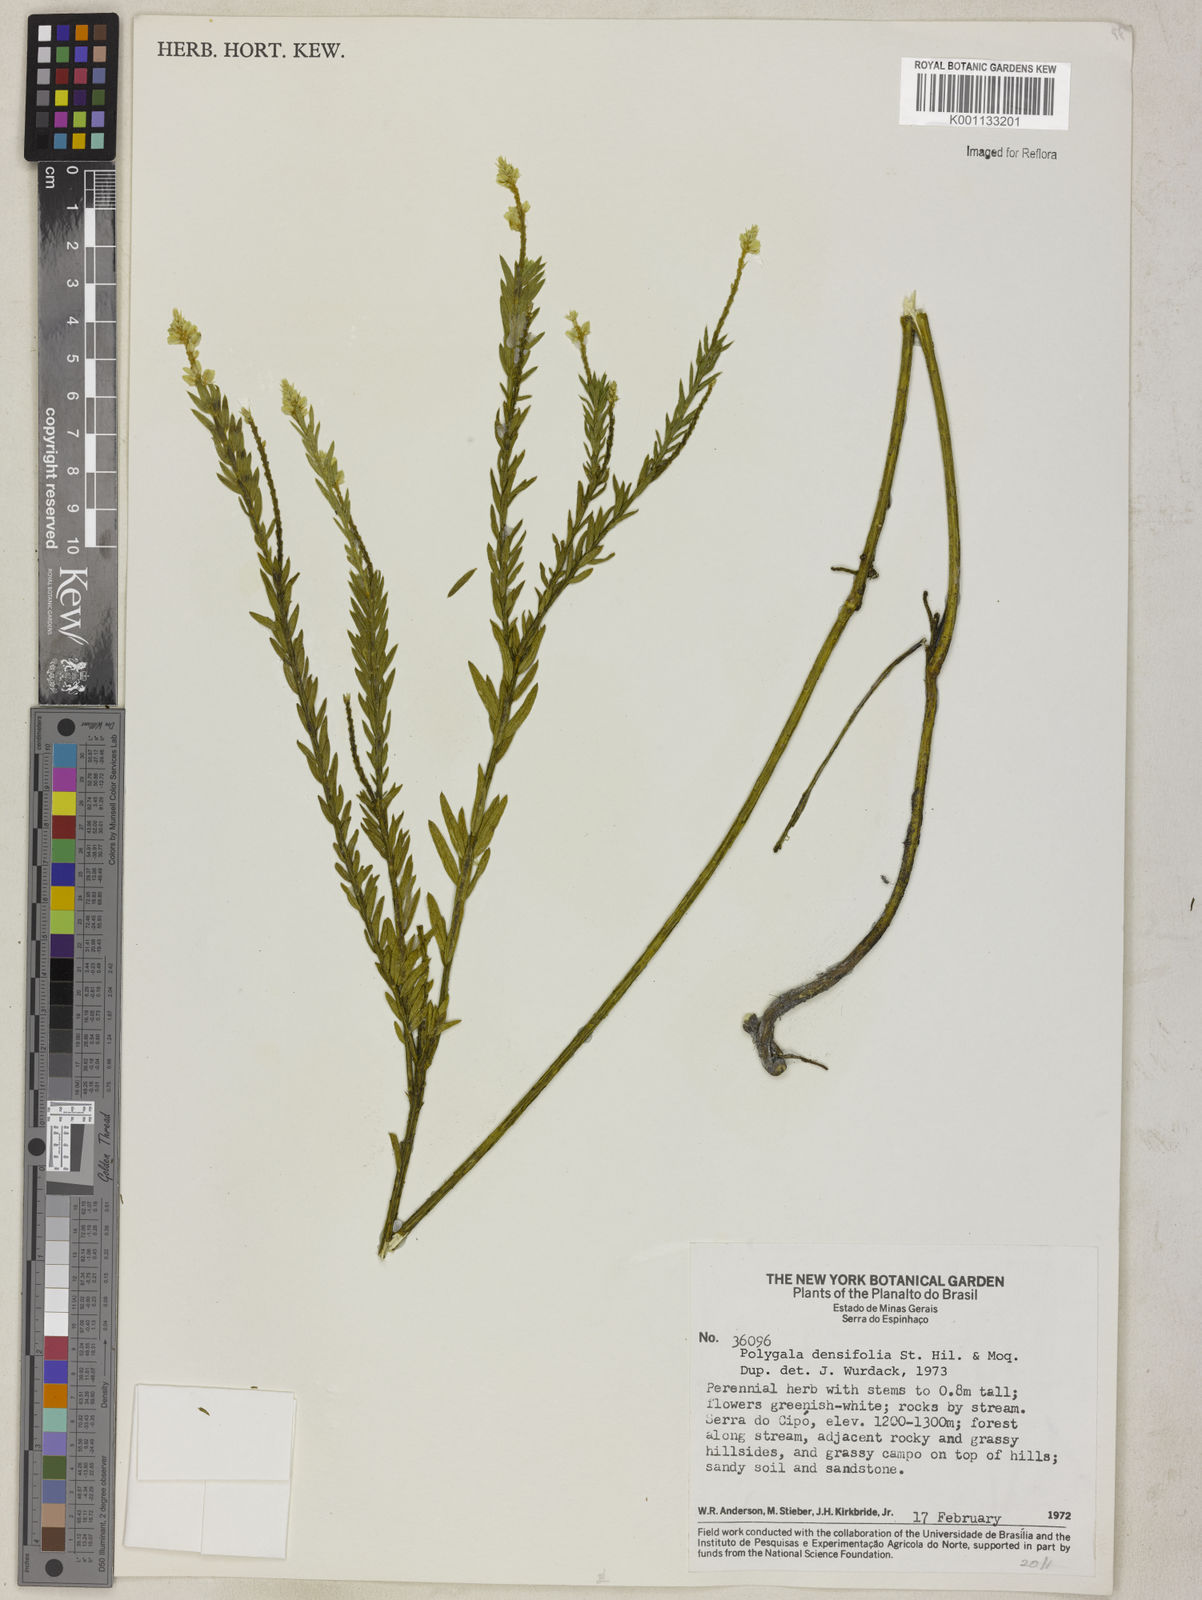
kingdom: Plantae
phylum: Tracheophyta
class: Magnoliopsida
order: Fabales
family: Polygalaceae
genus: Polygala
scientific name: Polygala densifolia
